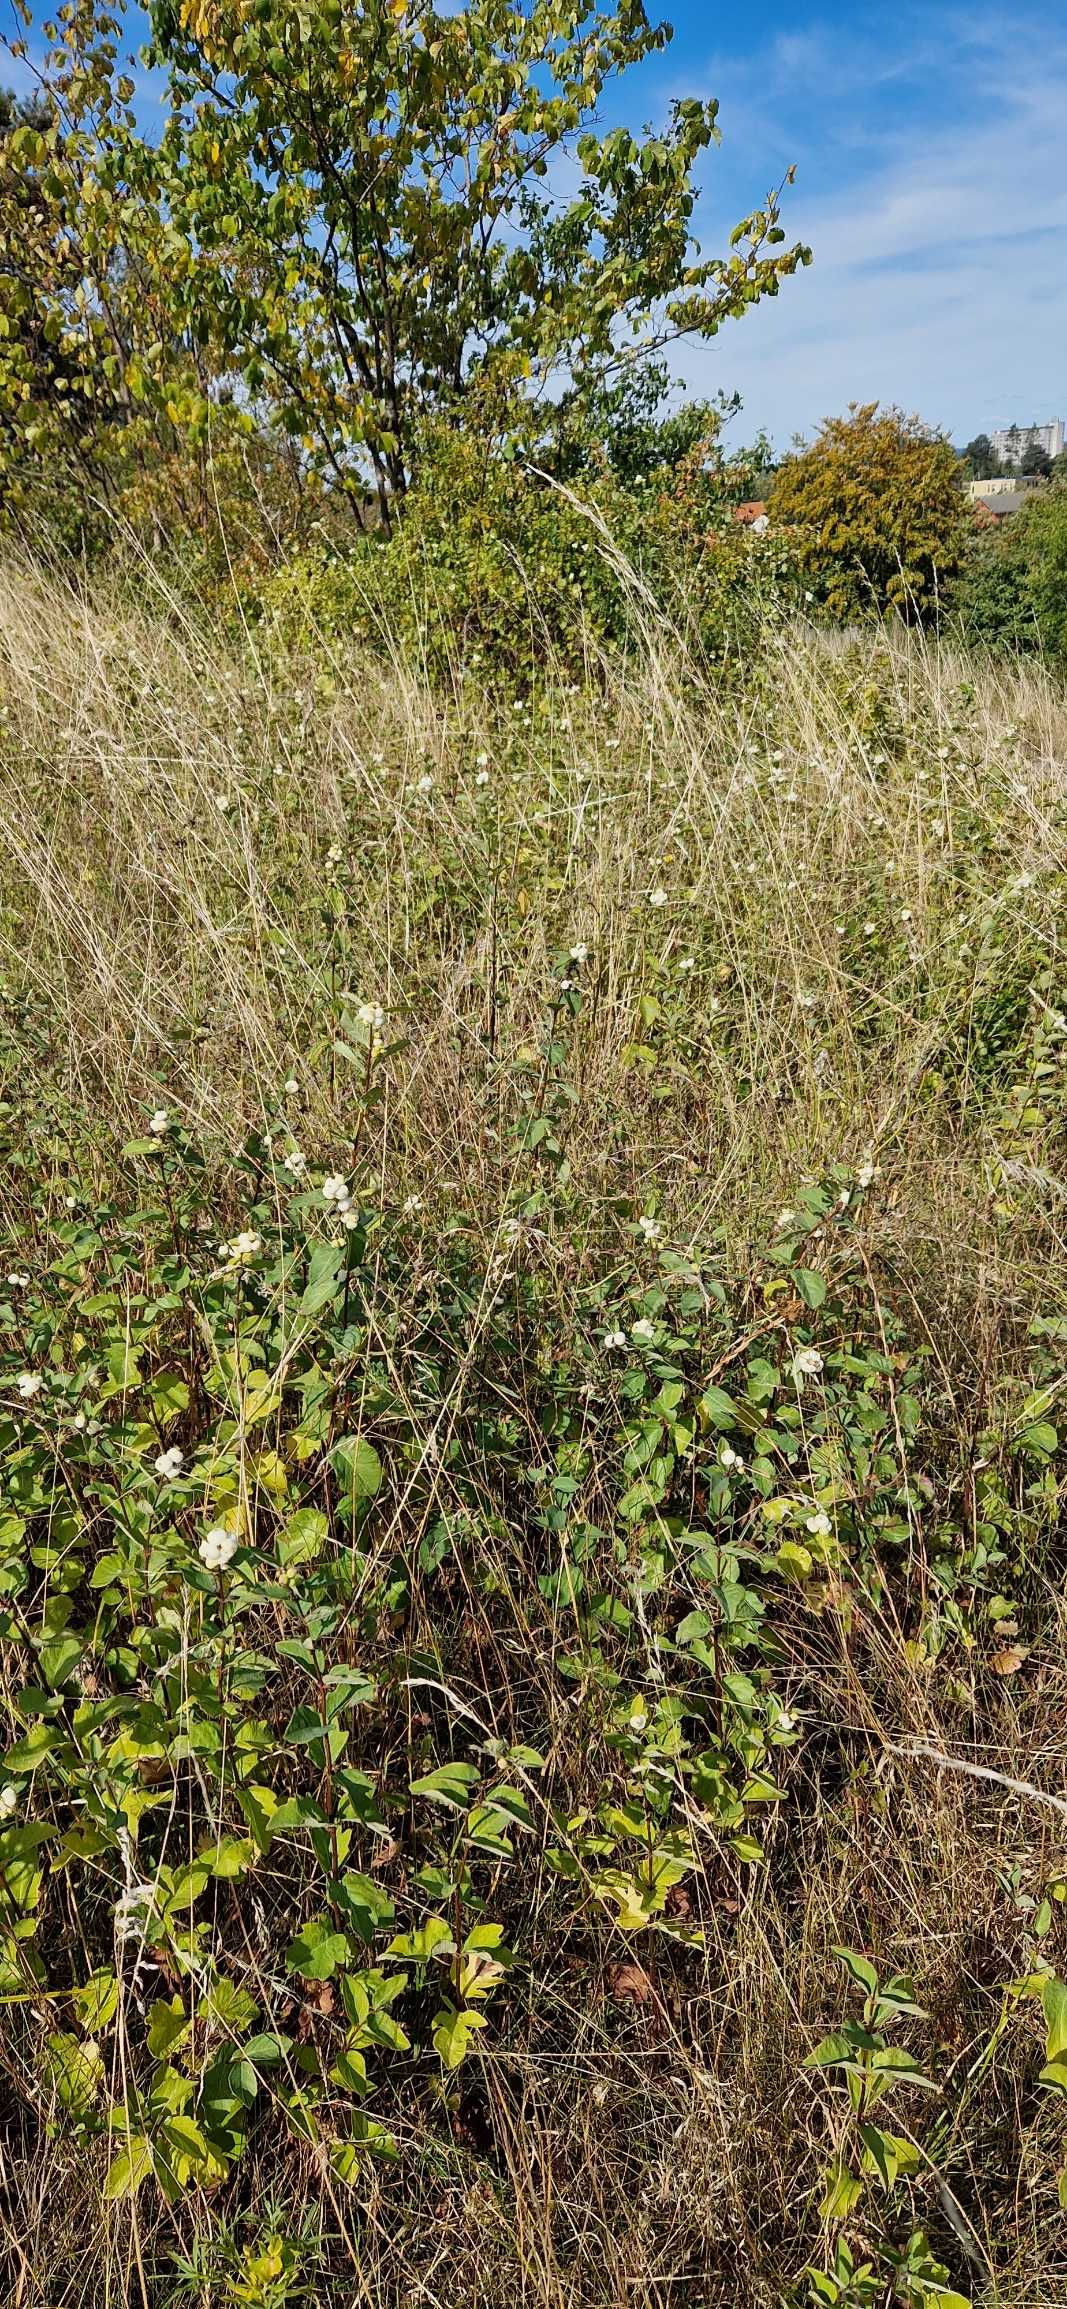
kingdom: Plantae
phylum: Tracheophyta
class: Magnoliopsida
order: Dipsacales
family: Caprifoliaceae
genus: Symphoricarpos
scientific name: Symphoricarpos albus
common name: Almindelig snebær
